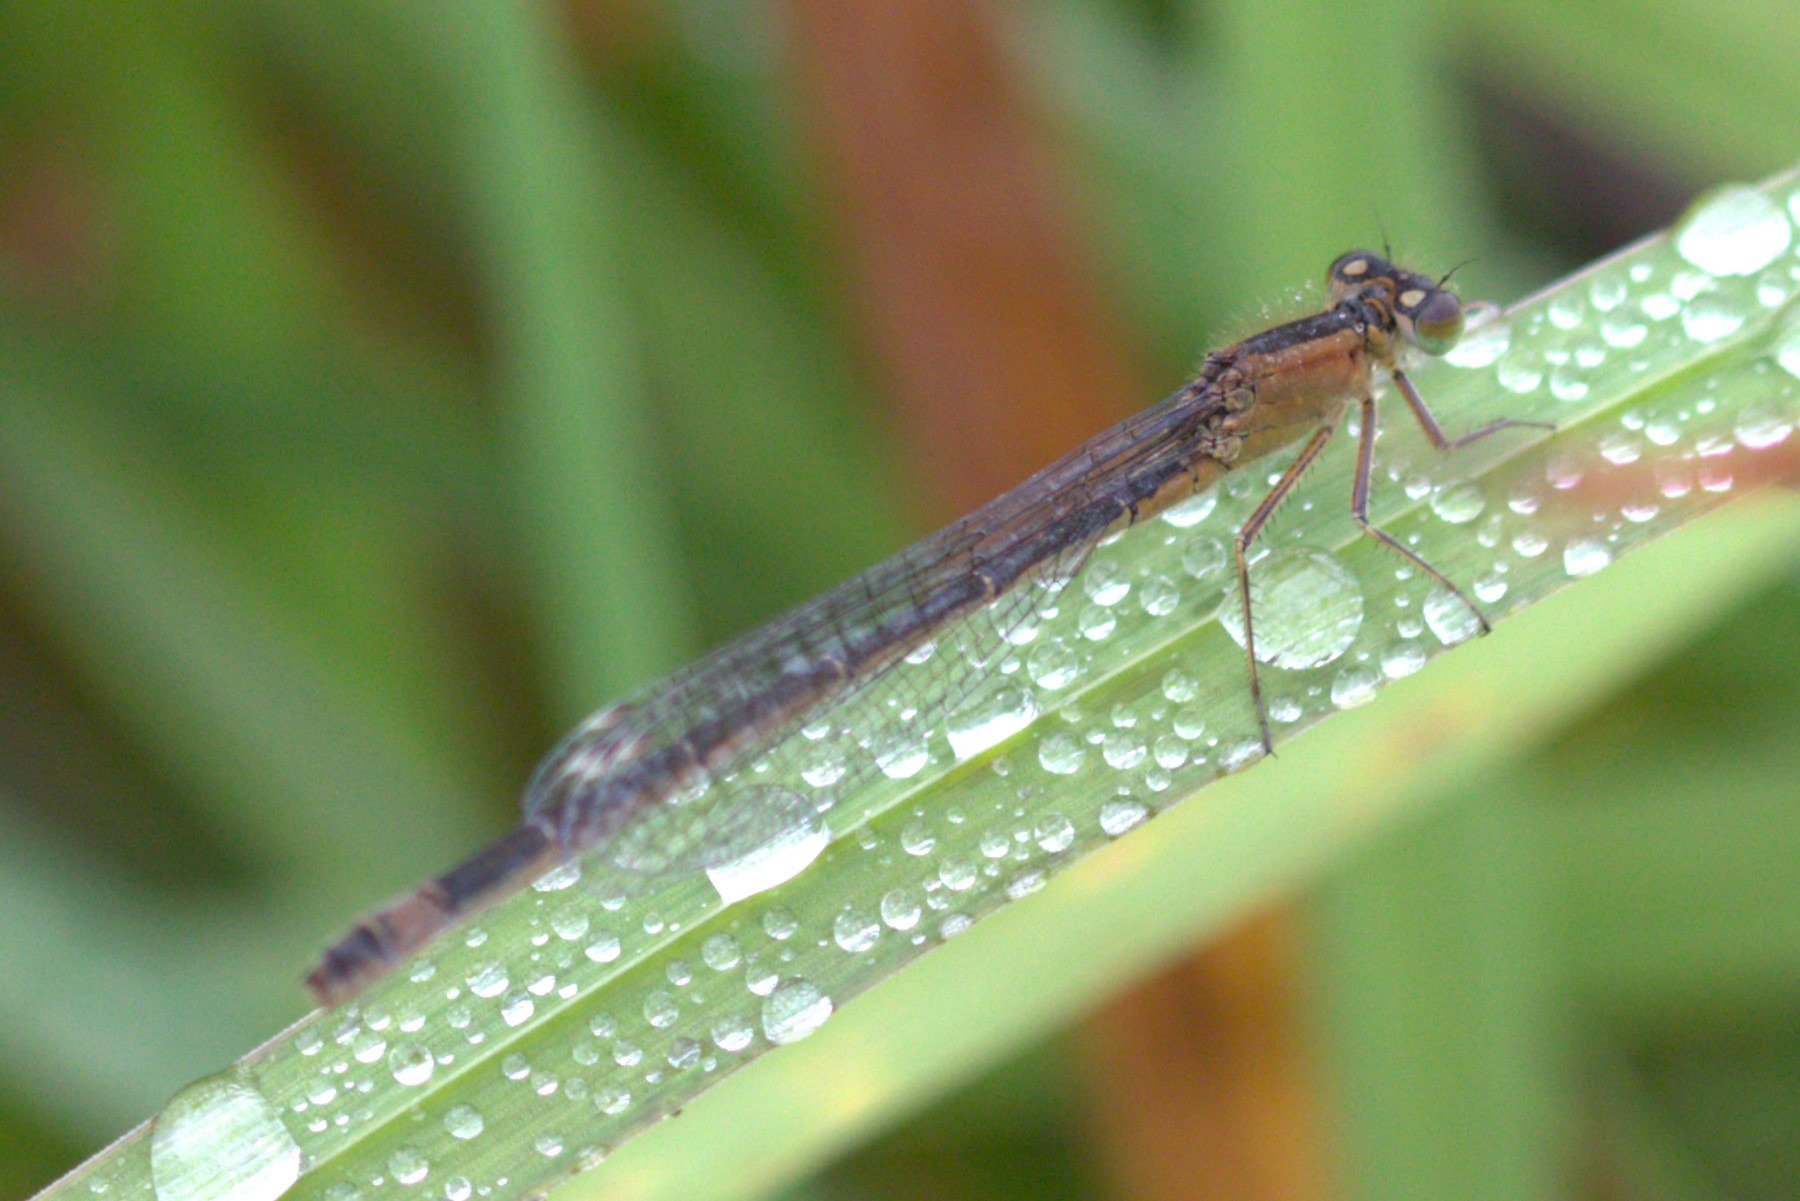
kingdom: Animalia
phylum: Arthropoda
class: Insecta
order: Odonata
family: Coenagrionidae
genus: Ischnura
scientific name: Ischnura elegans
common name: Stor farvevandnymfe
